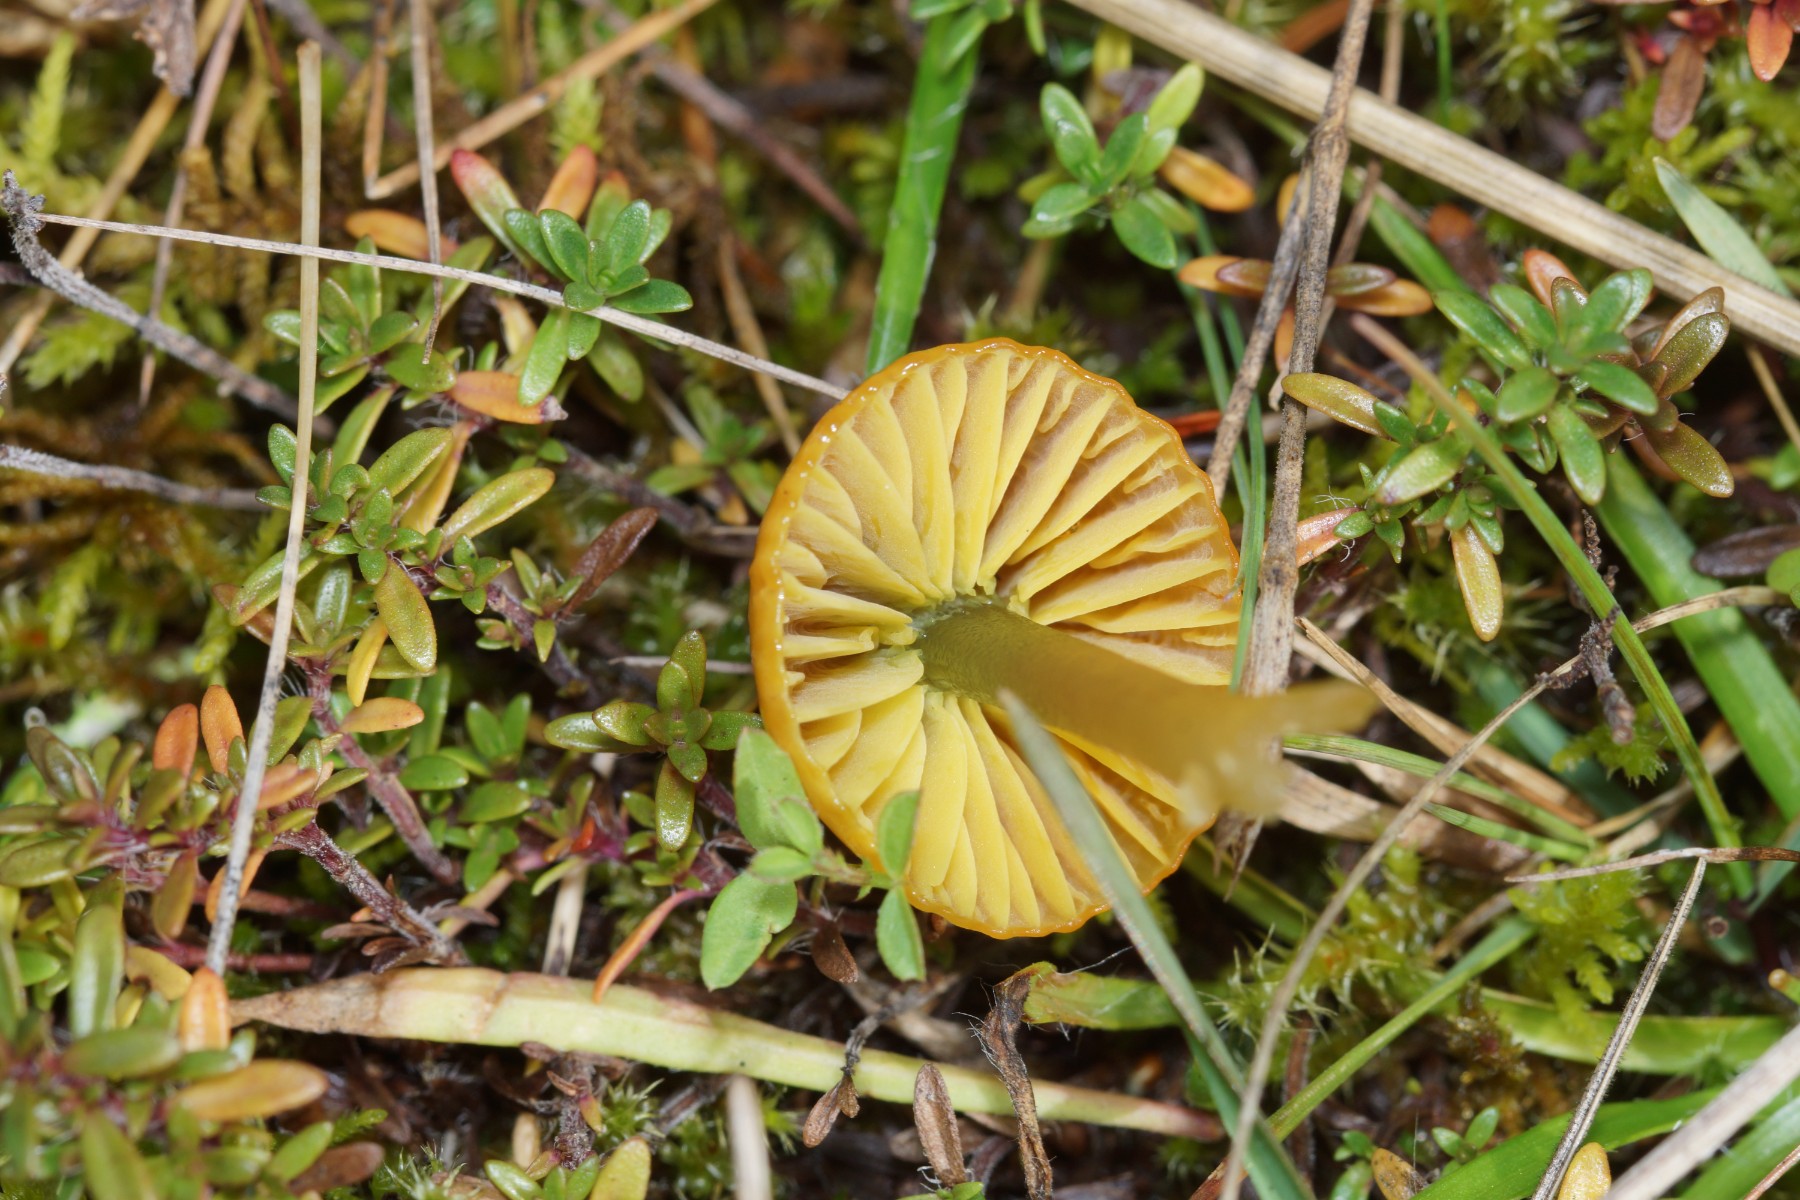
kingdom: Fungi
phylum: Basidiomycota
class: Agaricomycetes
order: Agaricales
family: Hygrophoraceae
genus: Gliophorus
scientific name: Gliophorus psittacinus
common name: papegøje-vokshat
